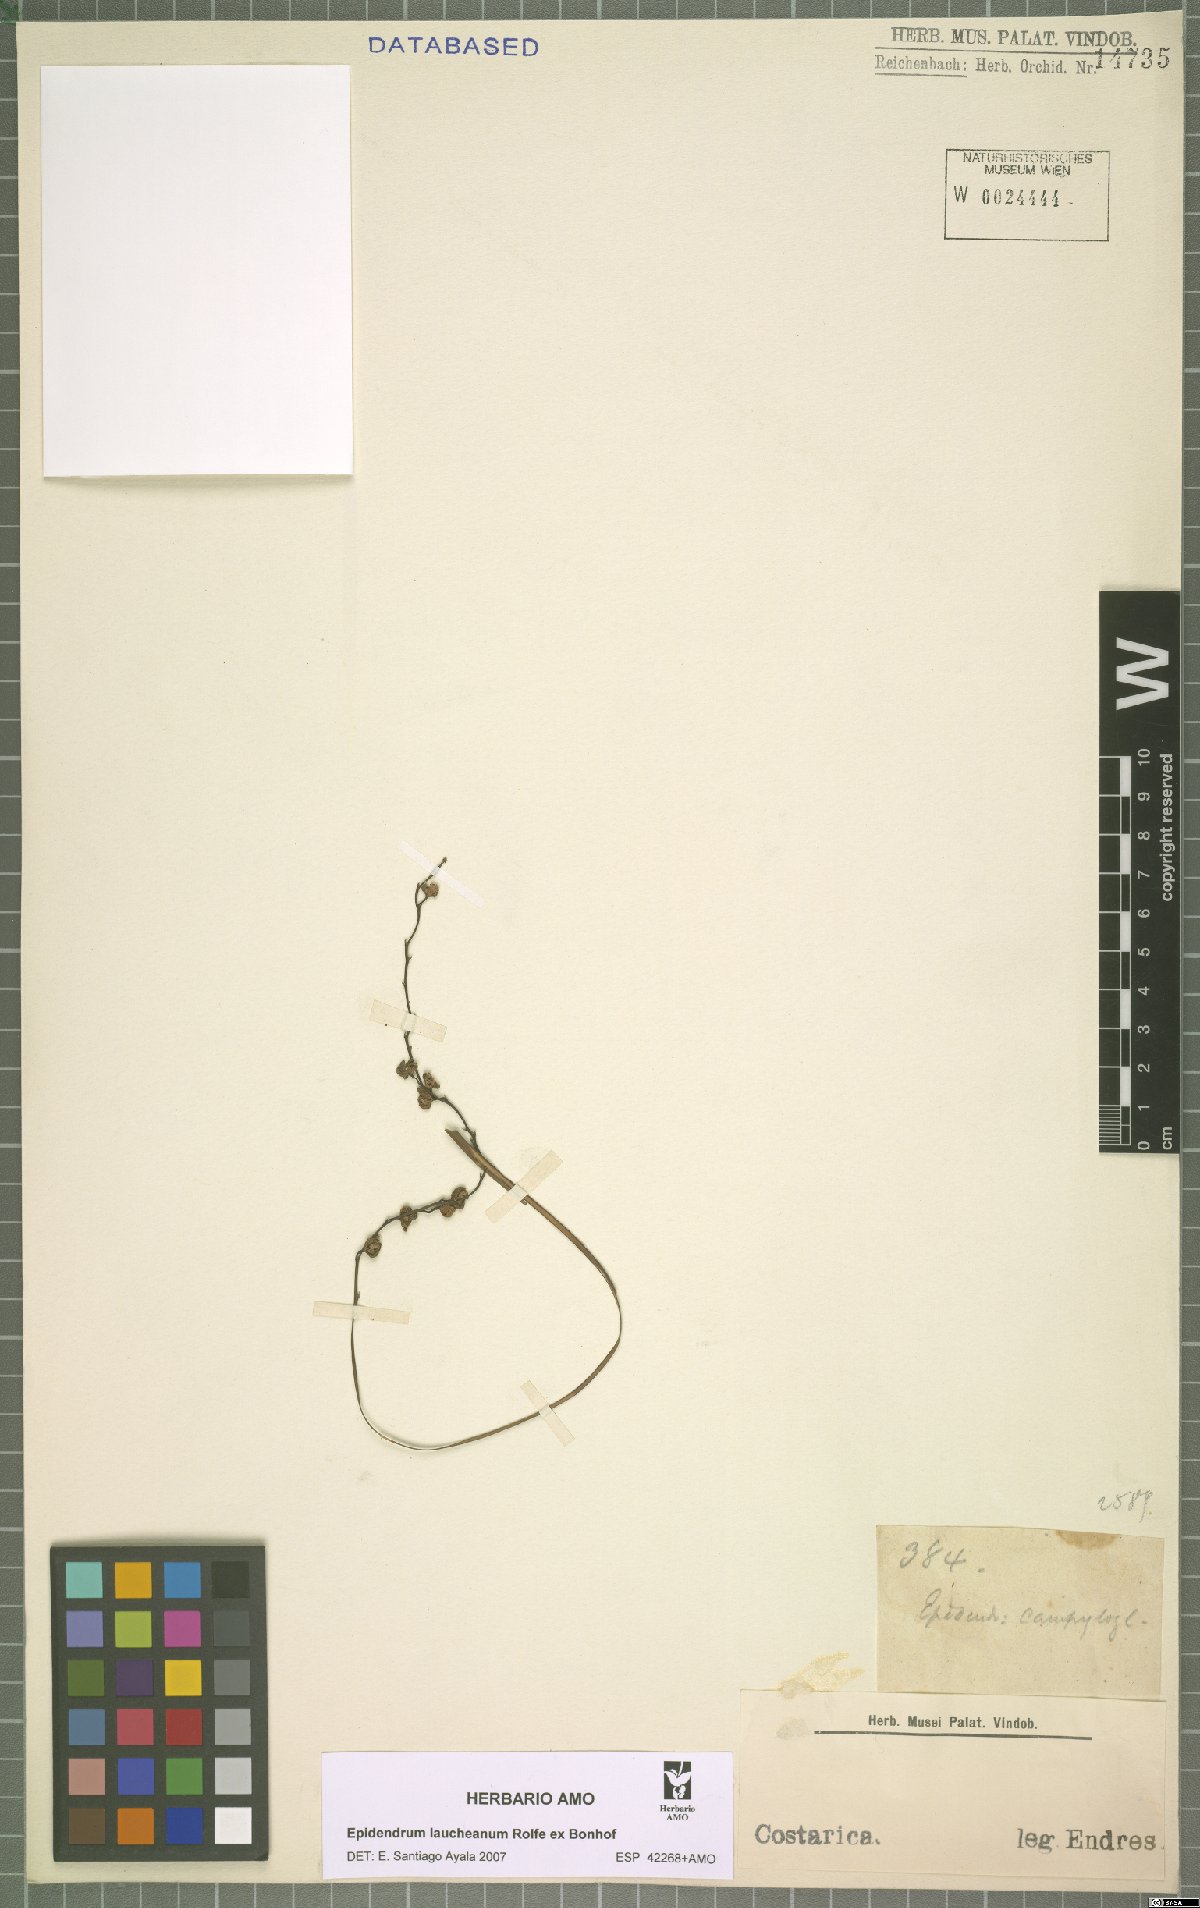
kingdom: Plantae
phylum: Tracheophyta
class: Liliopsida
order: Asparagales
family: Orchidaceae
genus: Epidendrum
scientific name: Epidendrum laucheanum
